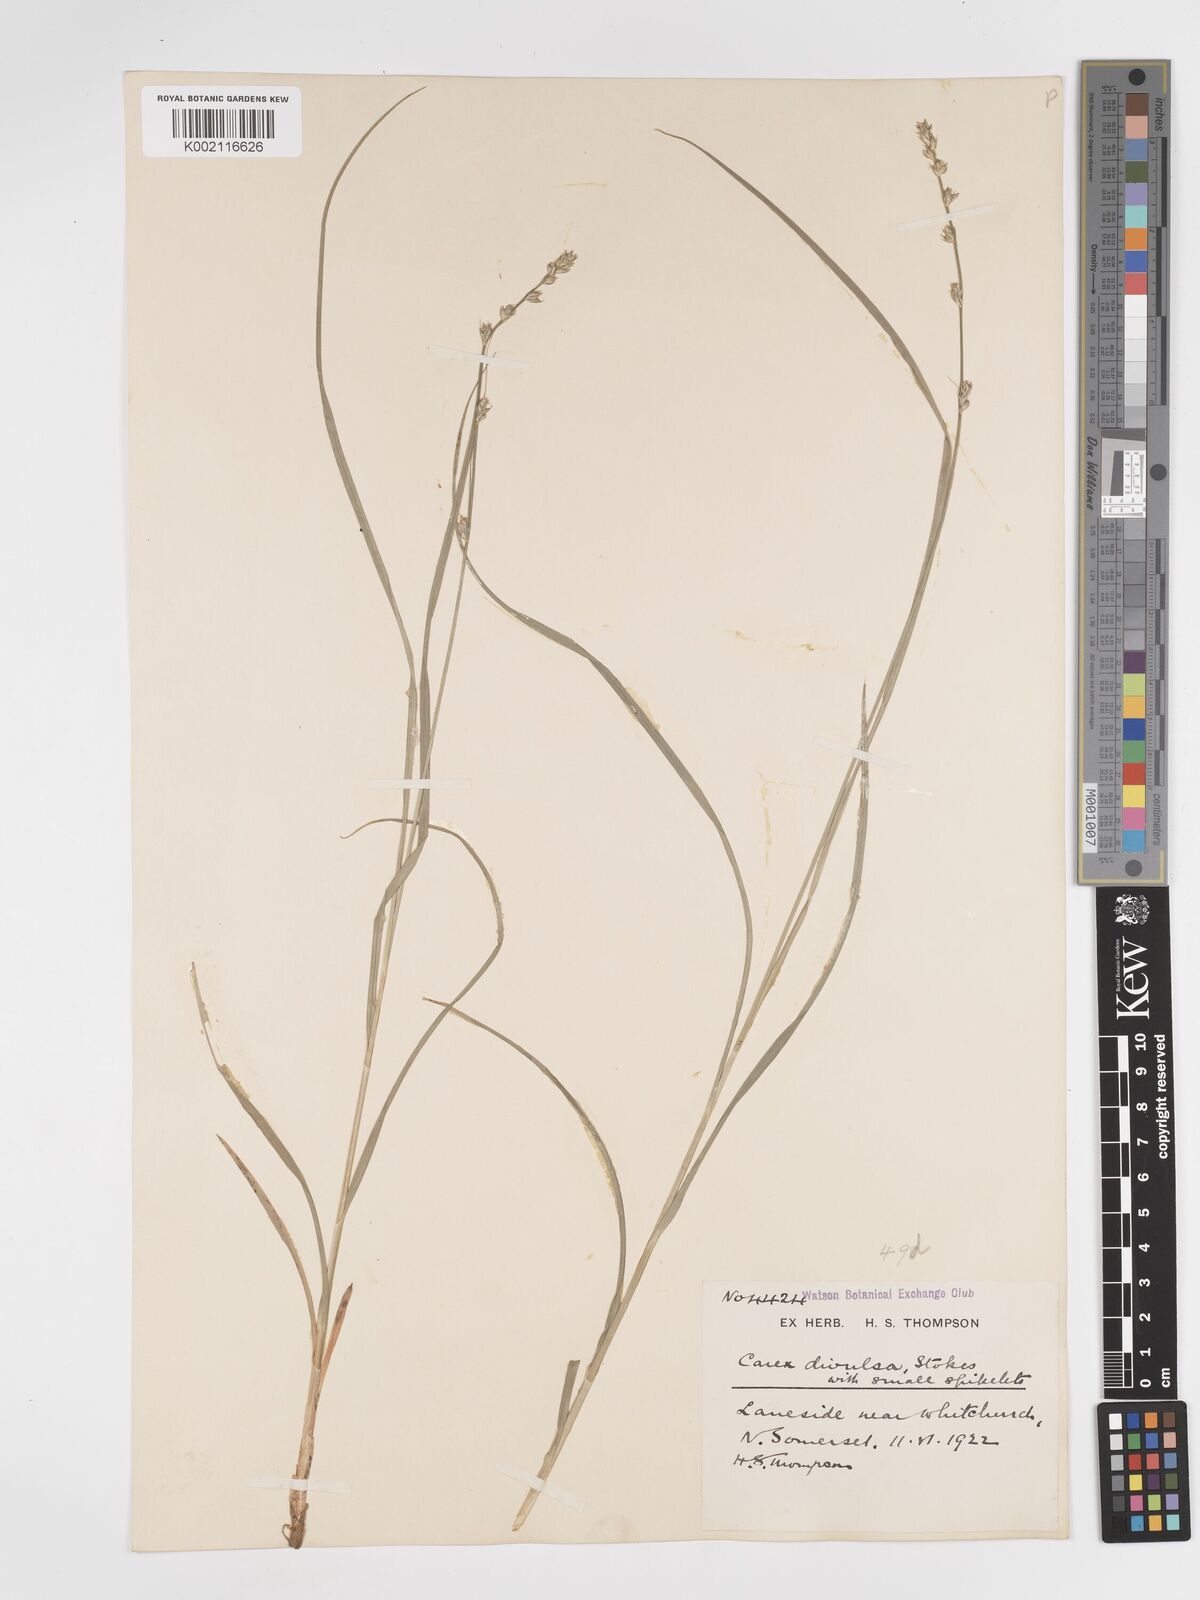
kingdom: Plantae
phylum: Tracheophyta
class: Liliopsida
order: Poales
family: Cyperaceae
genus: Carex
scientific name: Carex divulsa
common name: Grassland sedge
